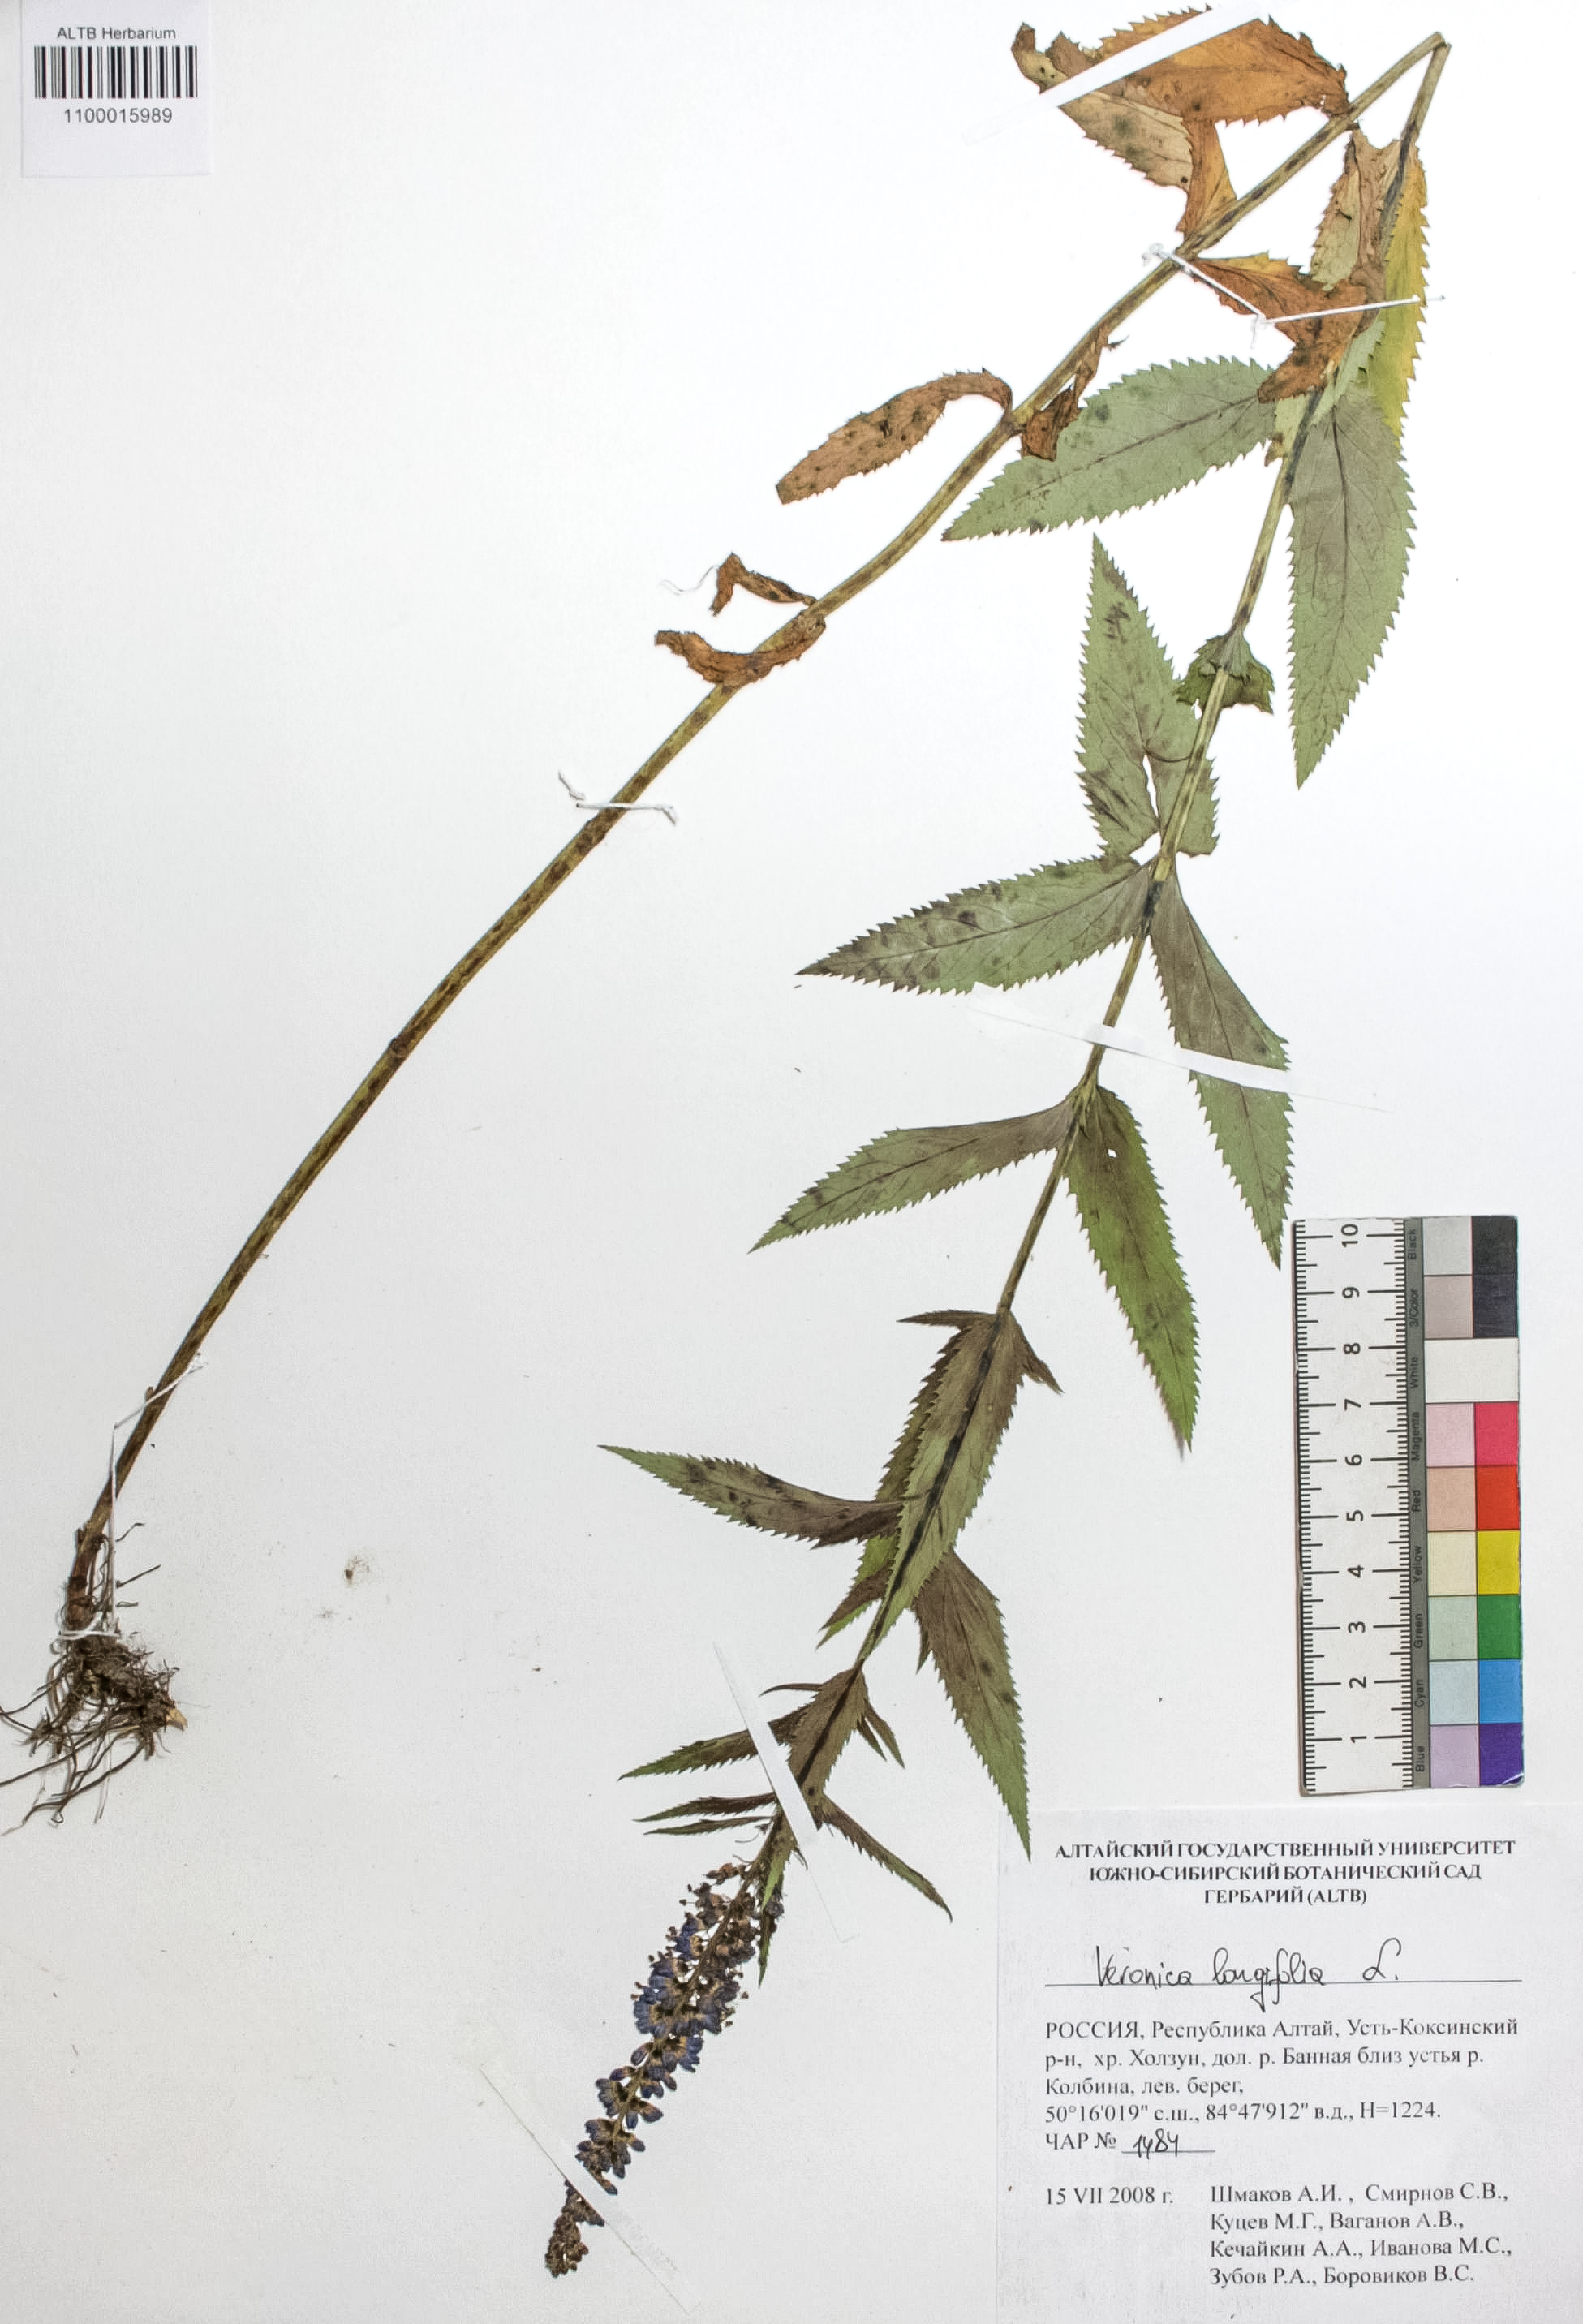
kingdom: Plantae
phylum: Tracheophyta
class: Magnoliopsida
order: Lamiales
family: Plantaginaceae
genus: Veronica
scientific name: Veronica longifolia
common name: Garden speedwell
